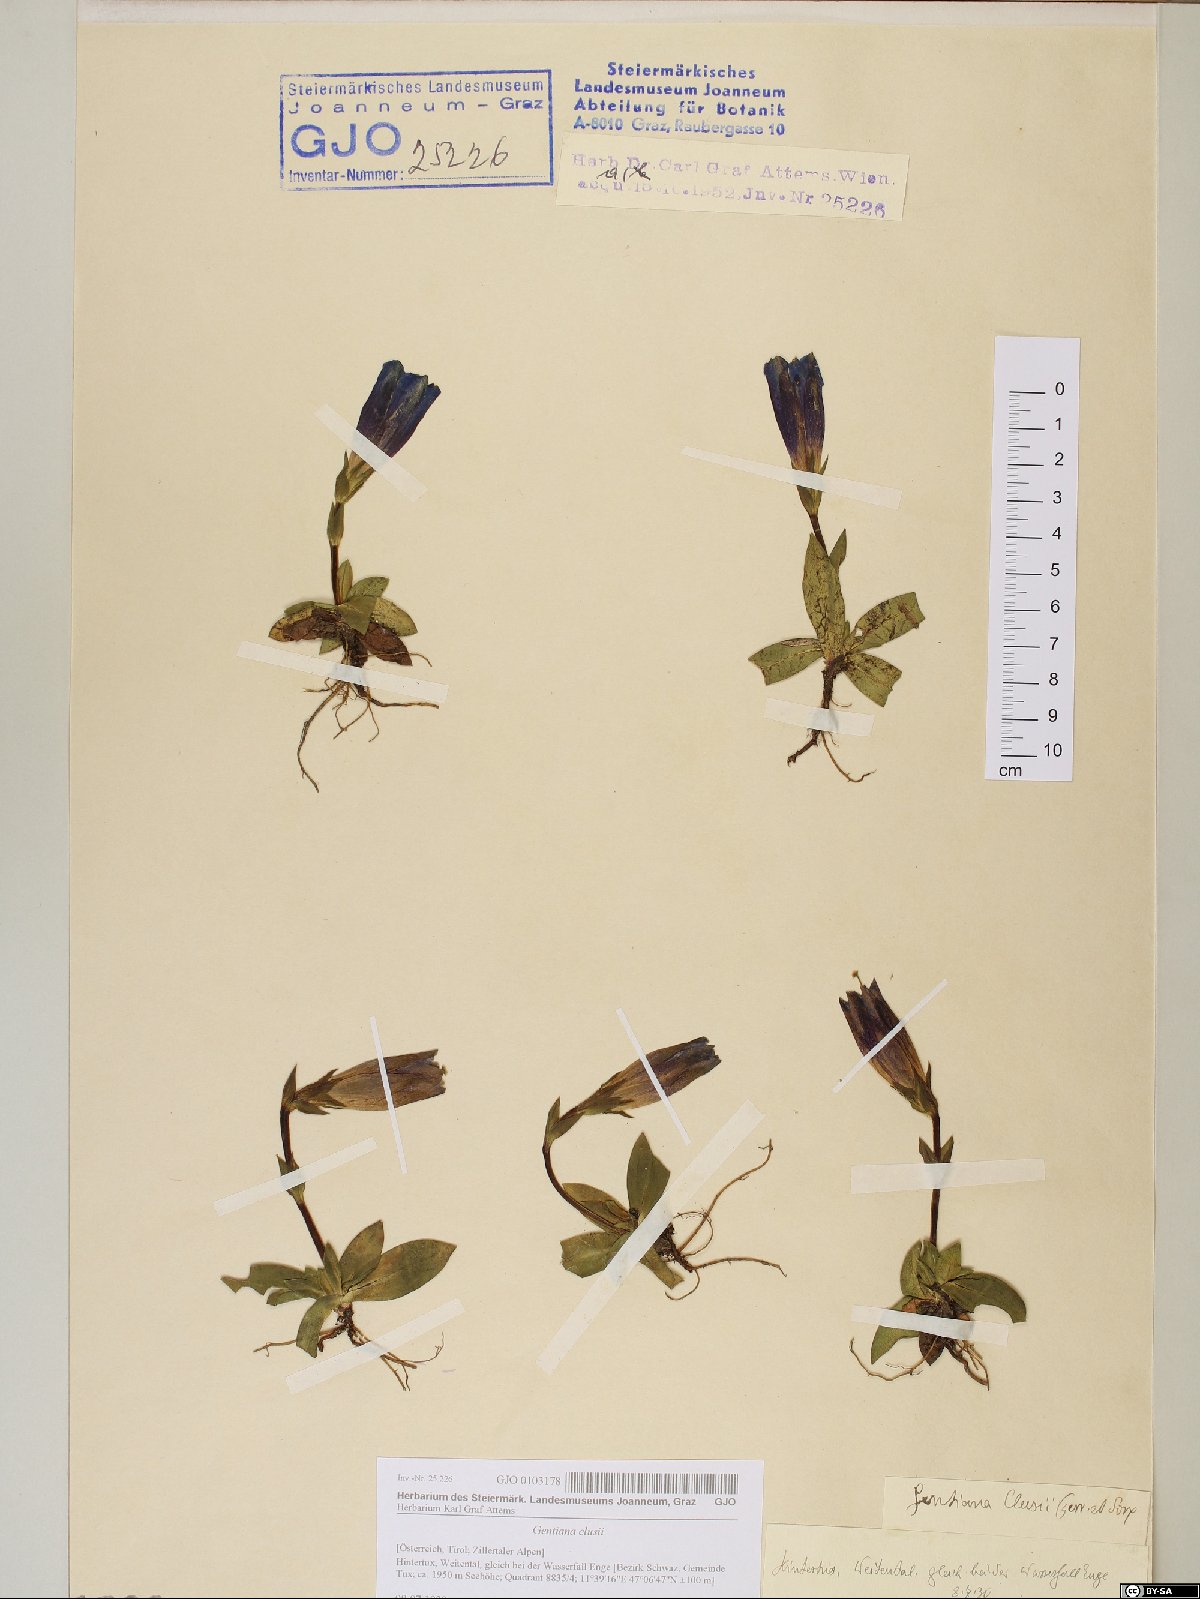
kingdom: Plantae
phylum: Tracheophyta
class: Magnoliopsida
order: Gentianales
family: Gentianaceae
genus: Gentiana
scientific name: Gentiana clusii
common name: Trumpet gentian
